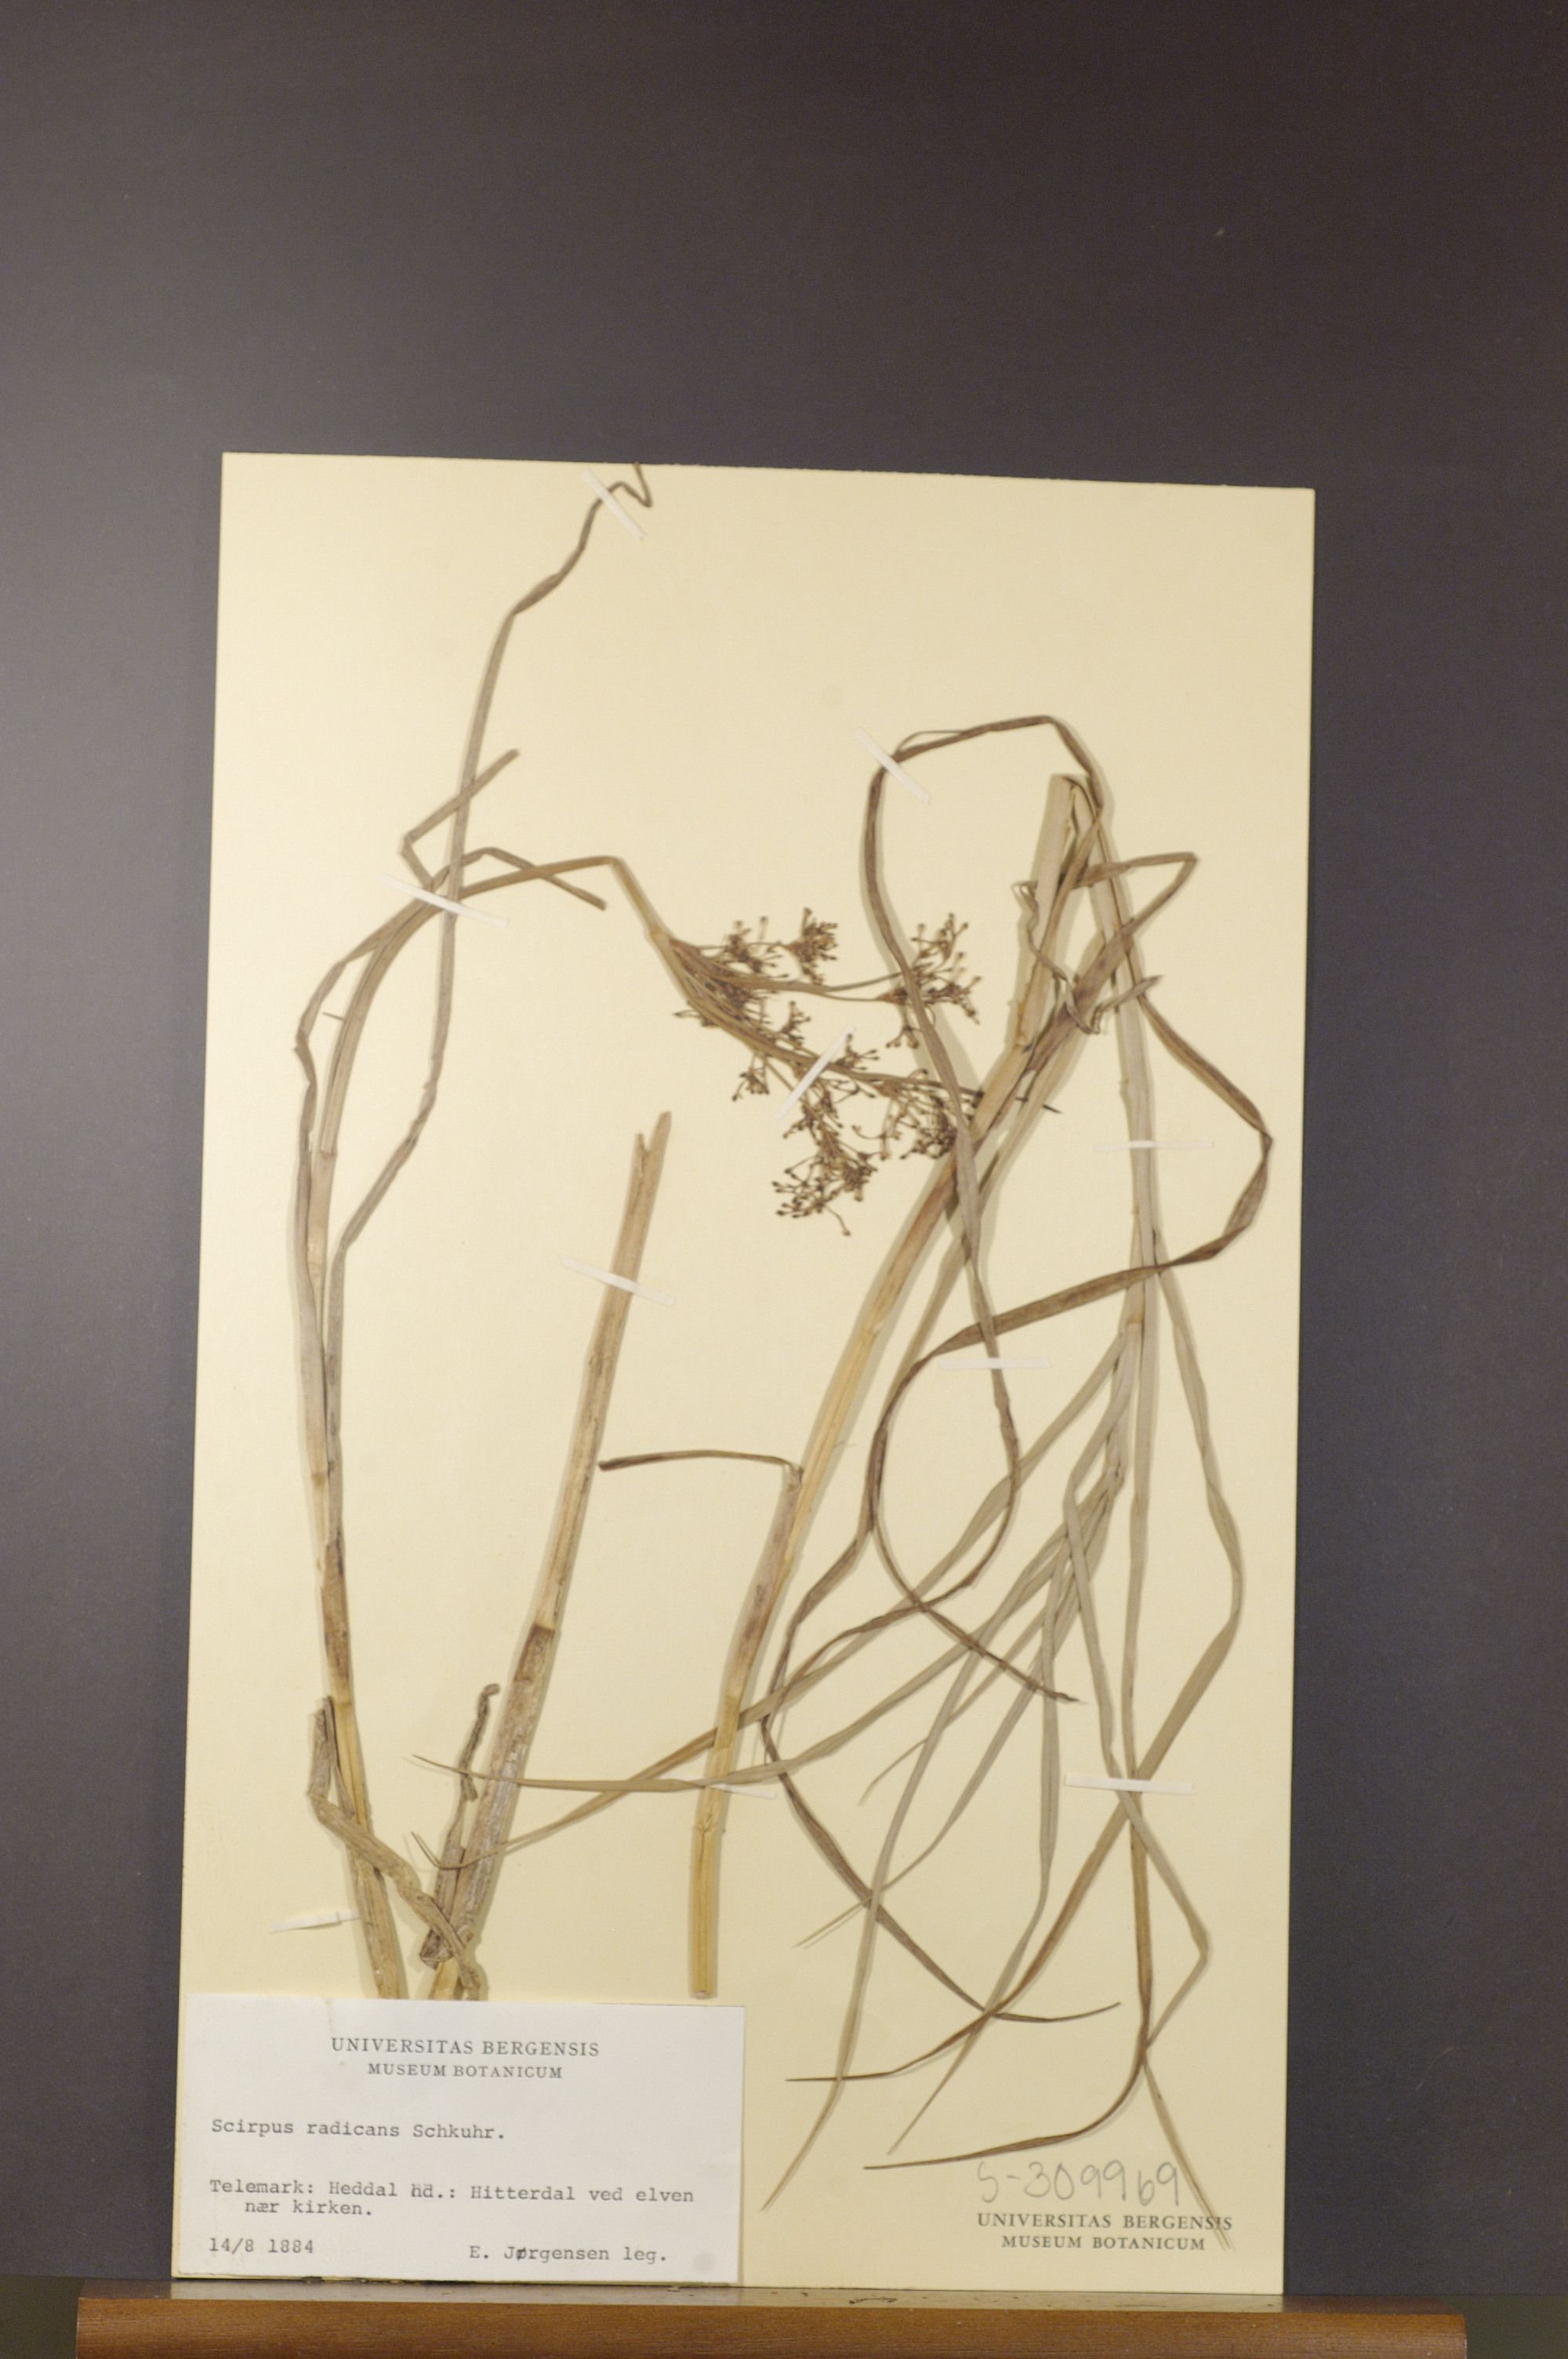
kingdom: Plantae
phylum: Tracheophyta
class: Liliopsida
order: Poales
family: Cyperaceae
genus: Scirpus
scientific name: Scirpus radicans
